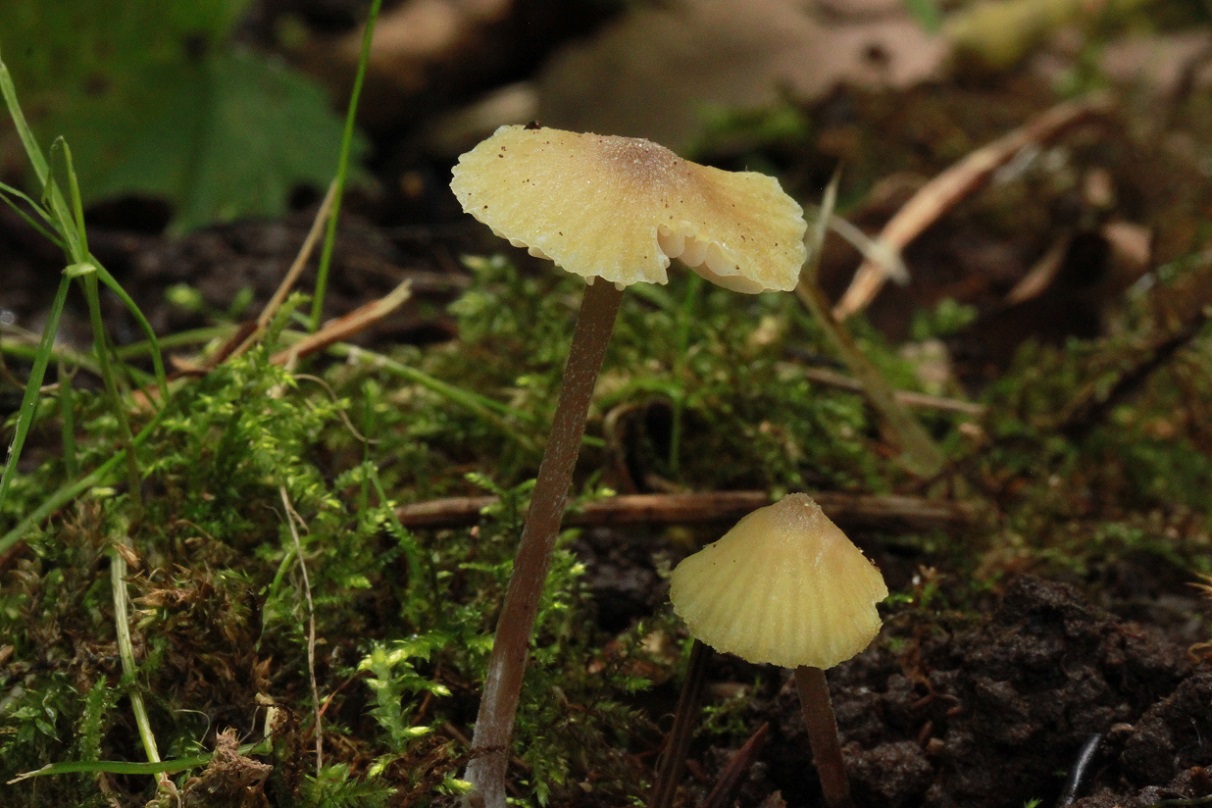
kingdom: Fungi
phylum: Basidiomycota
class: Agaricomycetes
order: Agaricales
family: Entolomataceae
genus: Entoloma
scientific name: Entoloma pleopodium
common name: duftende rødblad
